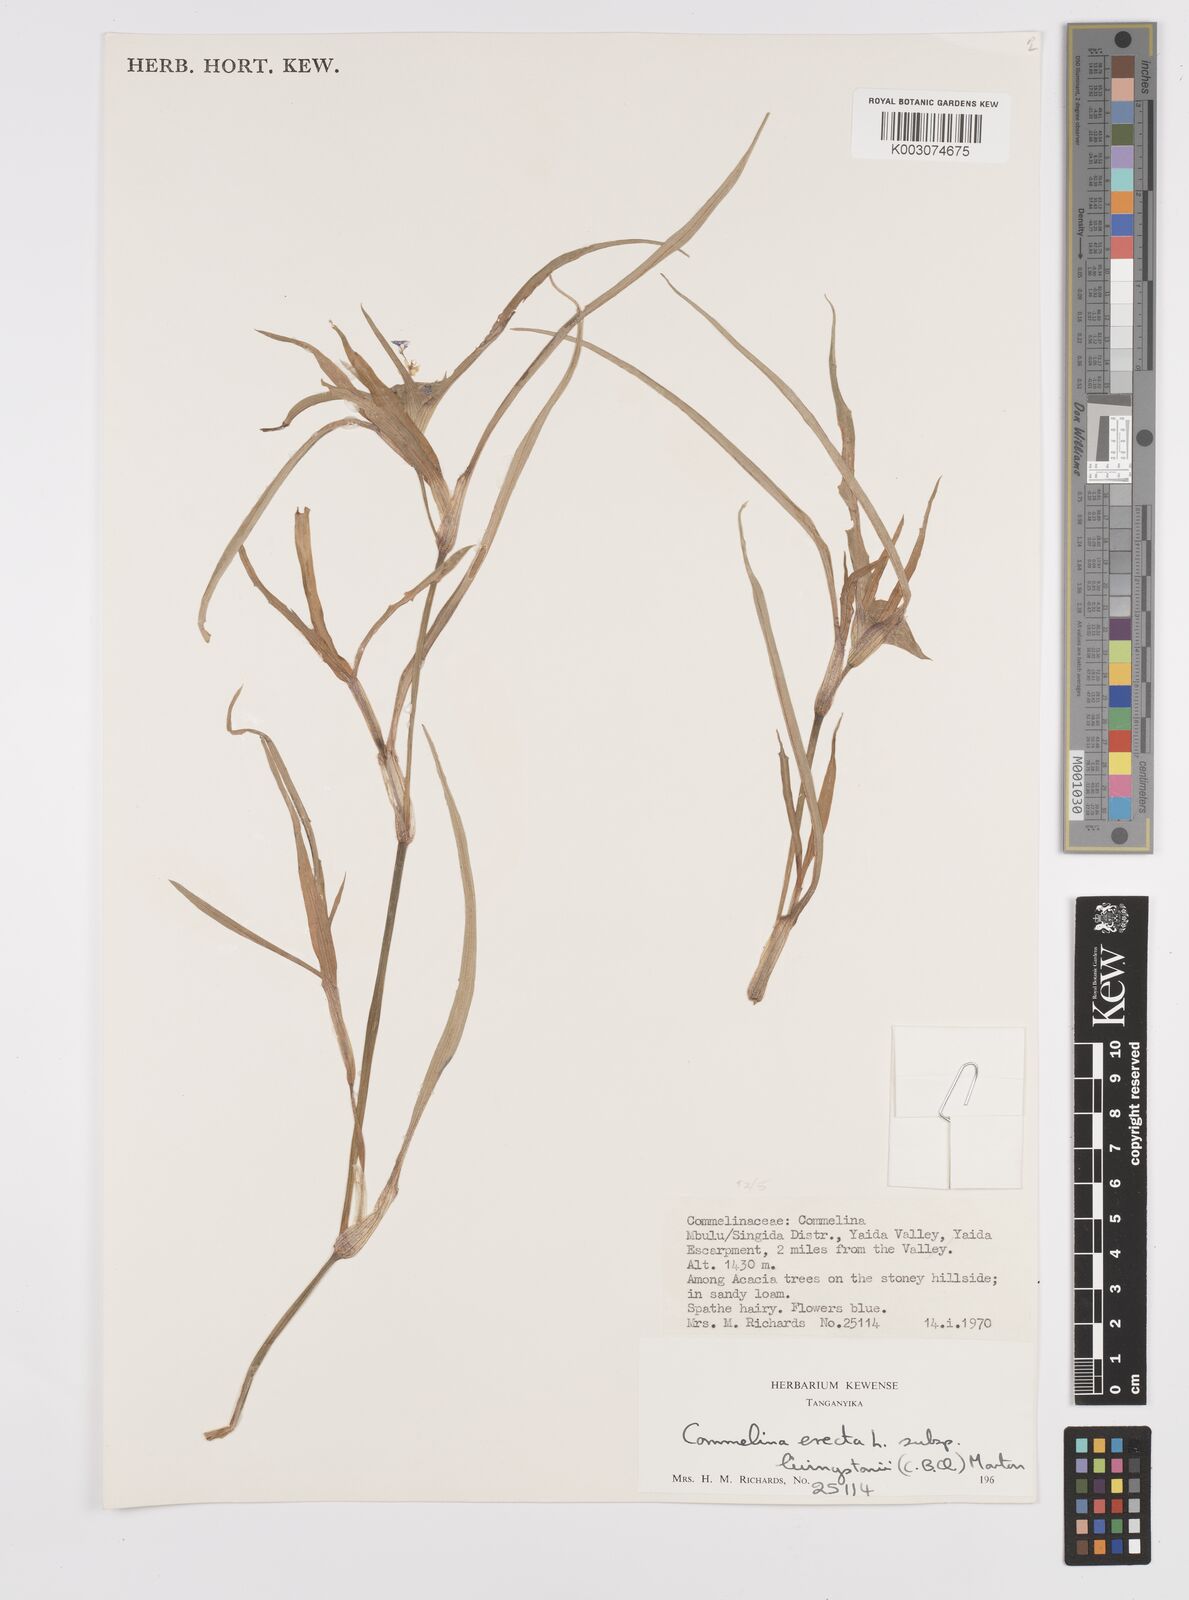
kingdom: Plantae
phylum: Tracheophyta
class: Liliopsida
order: Commelinales
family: Commelinaceae
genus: Commelina
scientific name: Commelina erecta
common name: Blousel blommetjie
